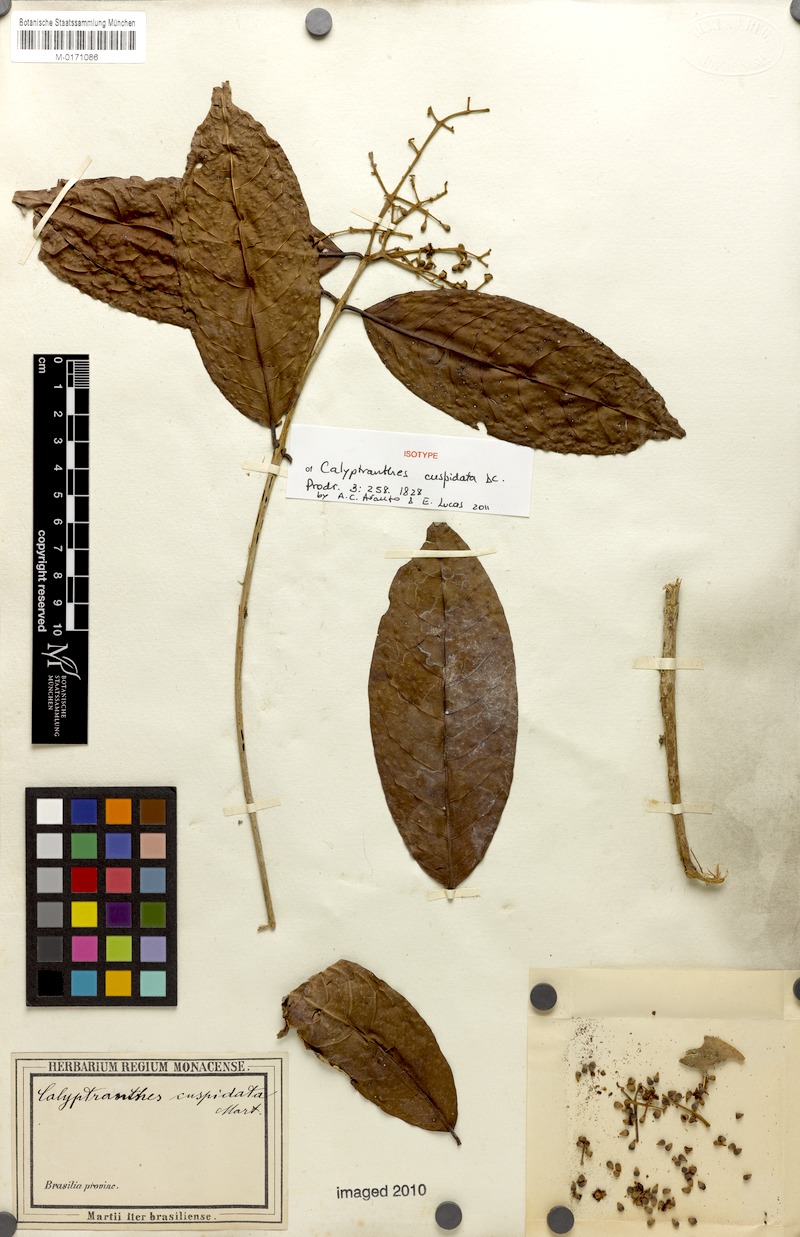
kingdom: Plantae
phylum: Tracheophyta
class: Magnoliopsida
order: Myrtales
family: Myrtaceae
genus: Myrcia
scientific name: Myrcia cuspidata
